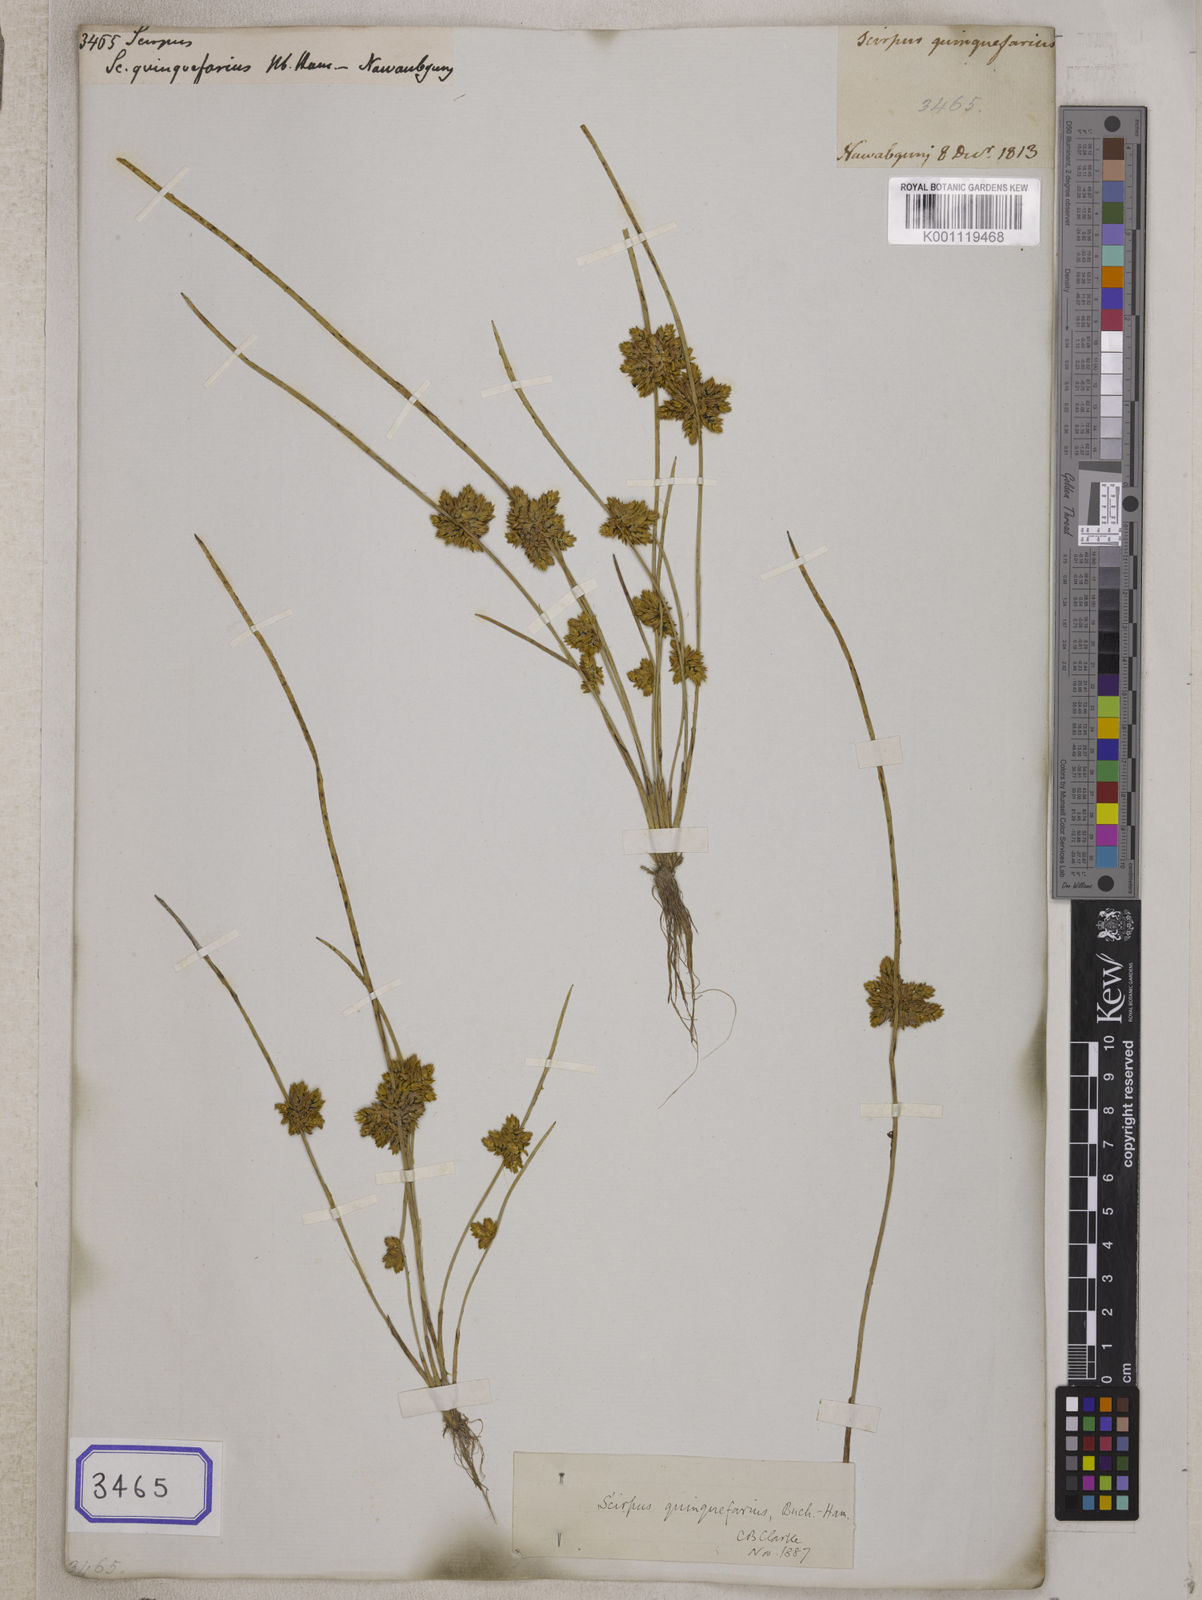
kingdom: Plantae
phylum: Tracheophyta
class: Liliopsida
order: Poales
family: Cyperaceae
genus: Scirpus
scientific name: Scirpus
